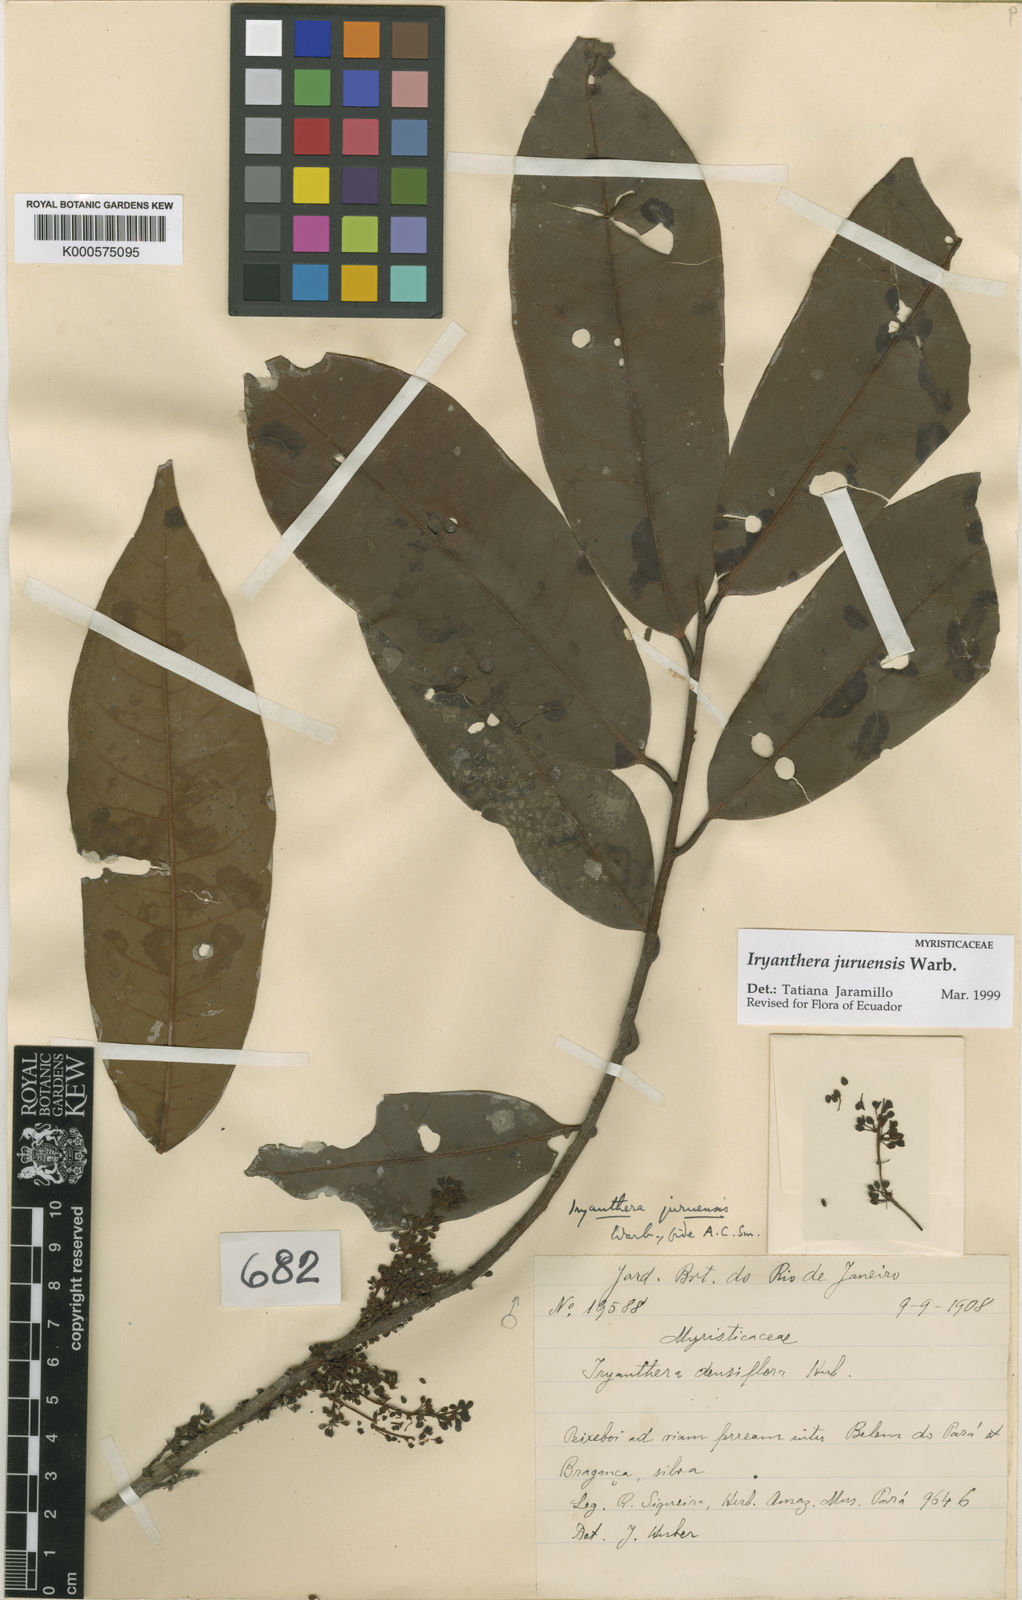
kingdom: Plantae
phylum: Tracheophyta
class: Magnoliopsida
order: Magnoliales
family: Myristicaceae
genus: Iryanthera
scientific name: Iryanthera juruensis
